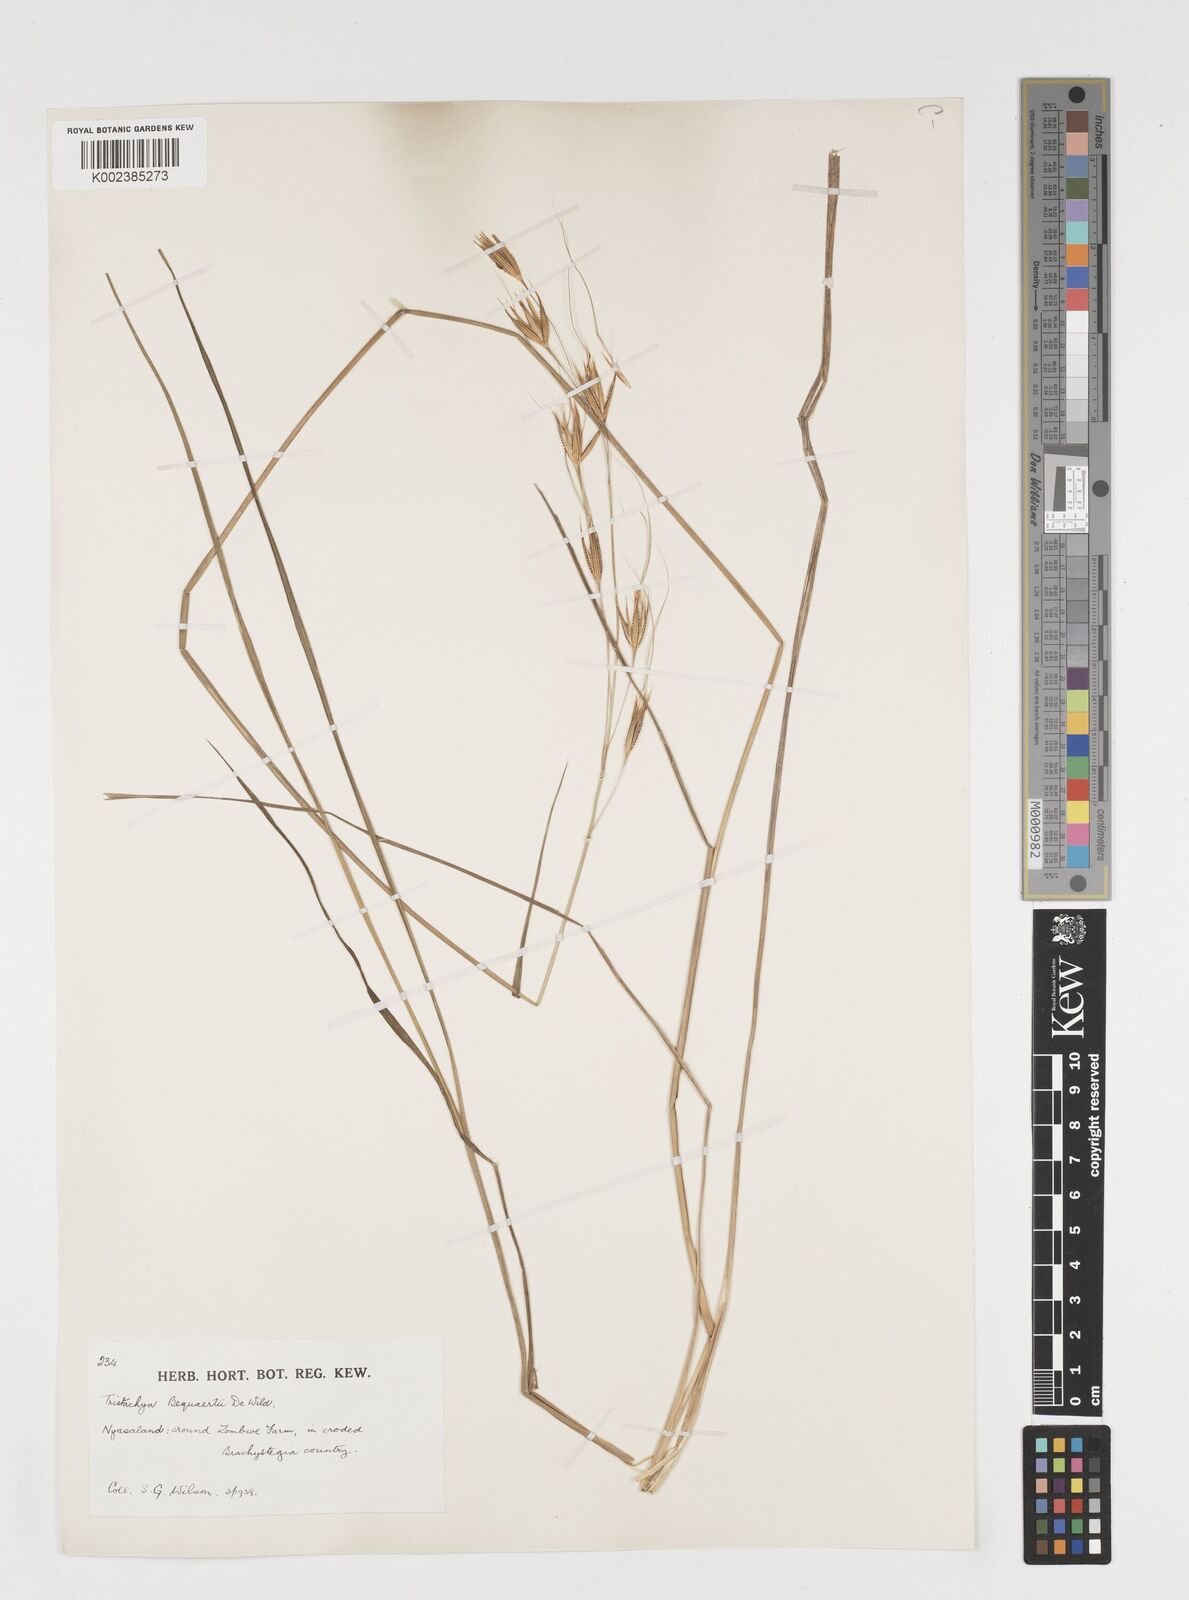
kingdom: Plantae
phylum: Tracheophyta
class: Liliopsida
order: Poales
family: Poaceae
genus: Tristachya
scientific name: Tristachya bequaertii
